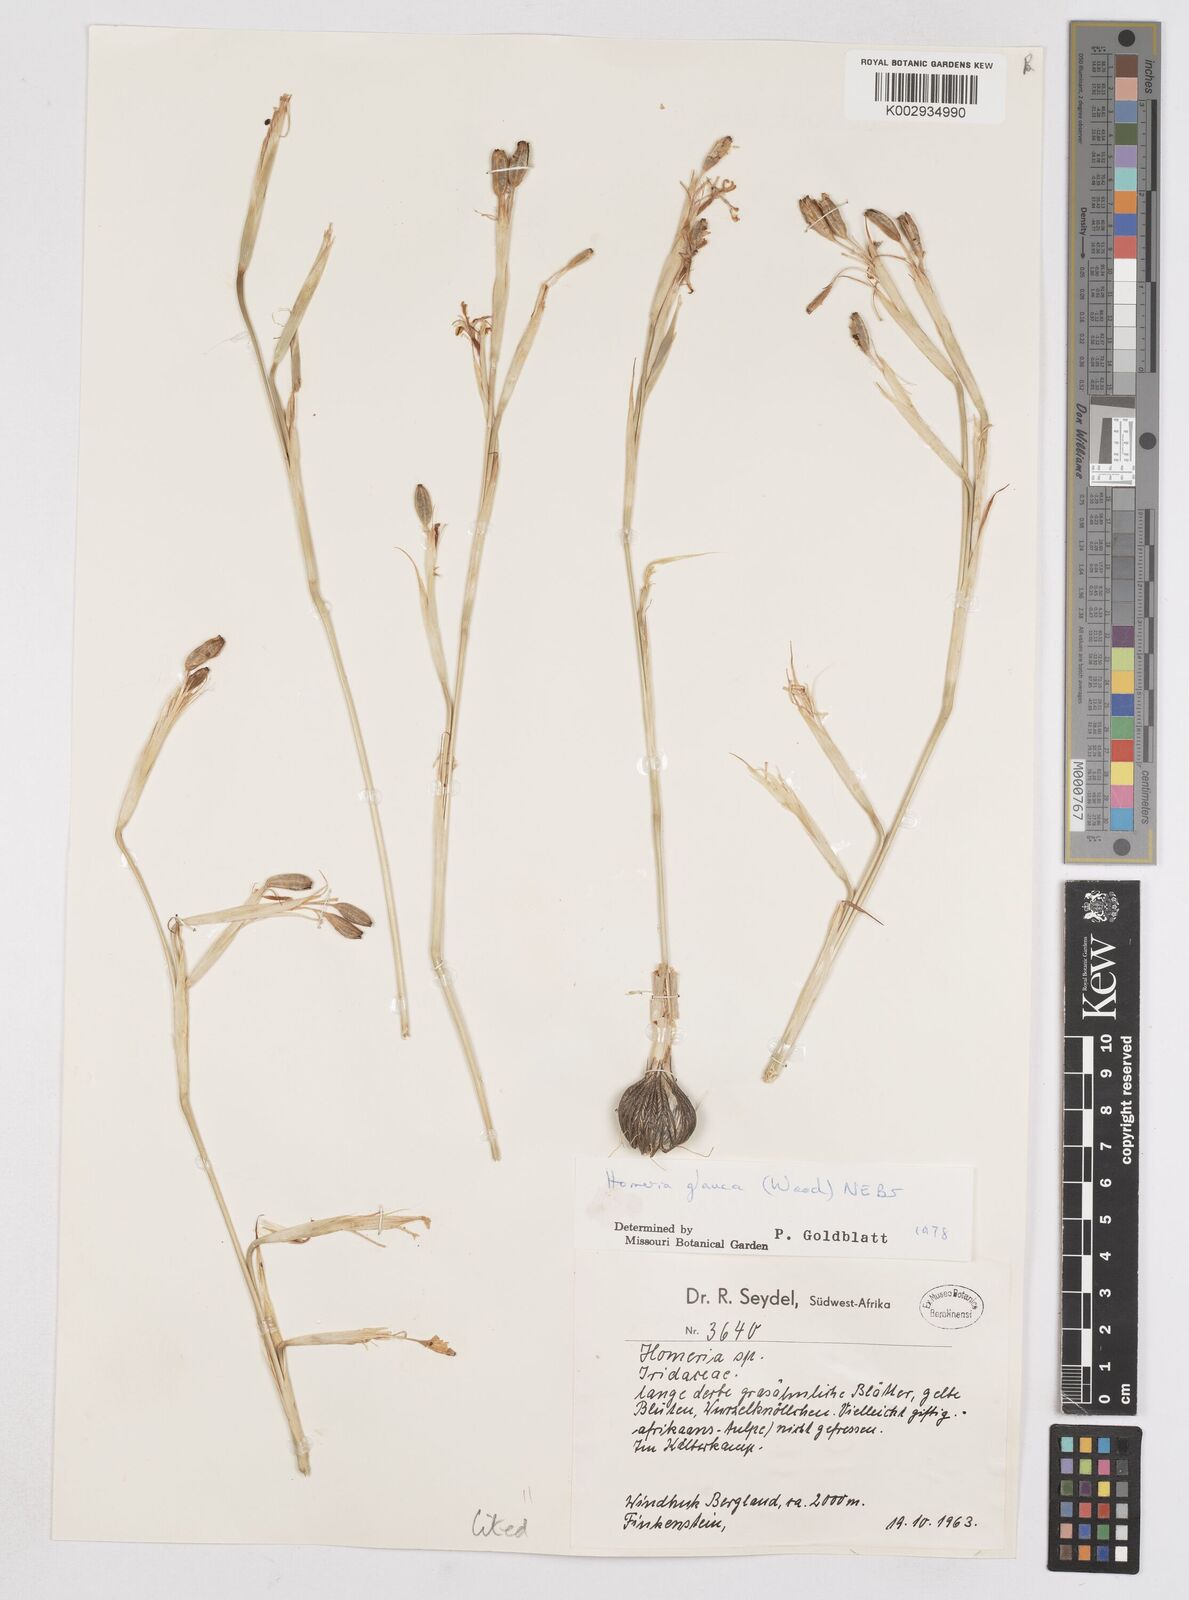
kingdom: Plantae
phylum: Tracheophyta
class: Liliopsida
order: Asparagales
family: Iridaceae
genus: Moraea
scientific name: Moraea pallida
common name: Yellow tulp
